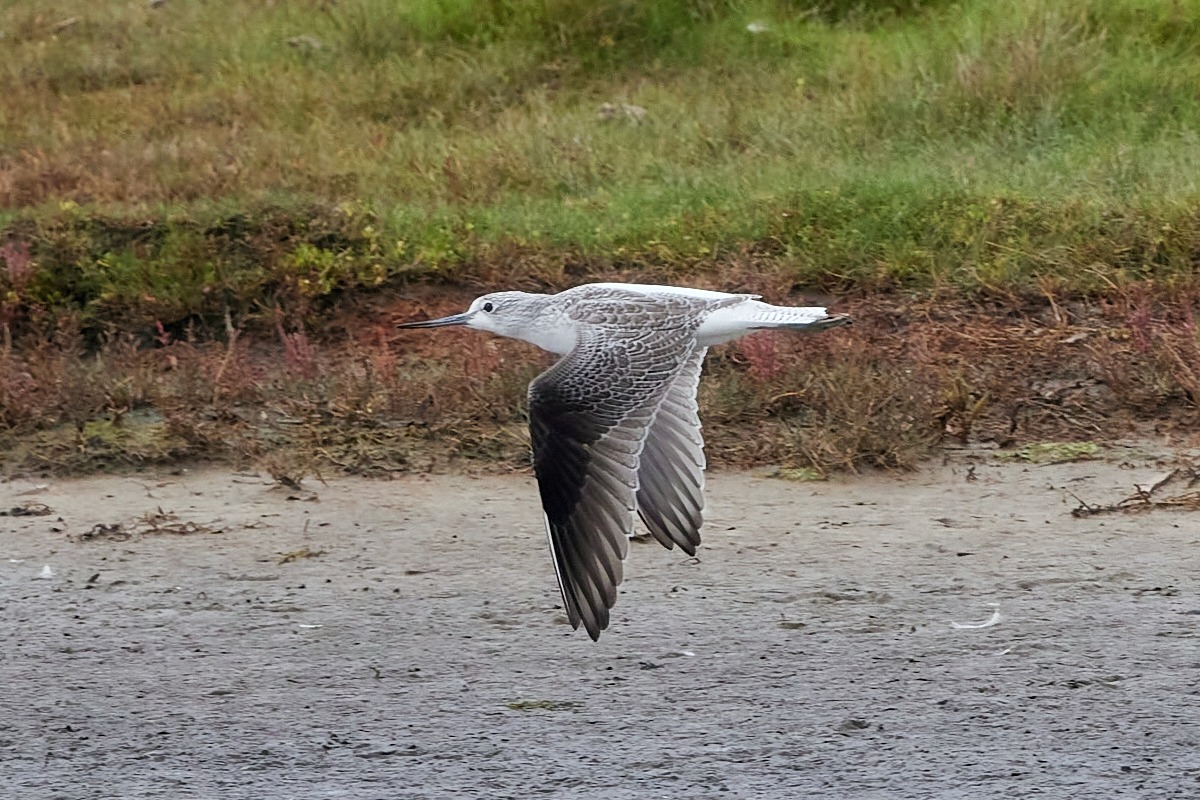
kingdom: Animalia
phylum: Chordata
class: Aves
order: Charadriiformes
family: Scolopacidae
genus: Tringa
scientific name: Tringa nebularia
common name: Hvidklire
